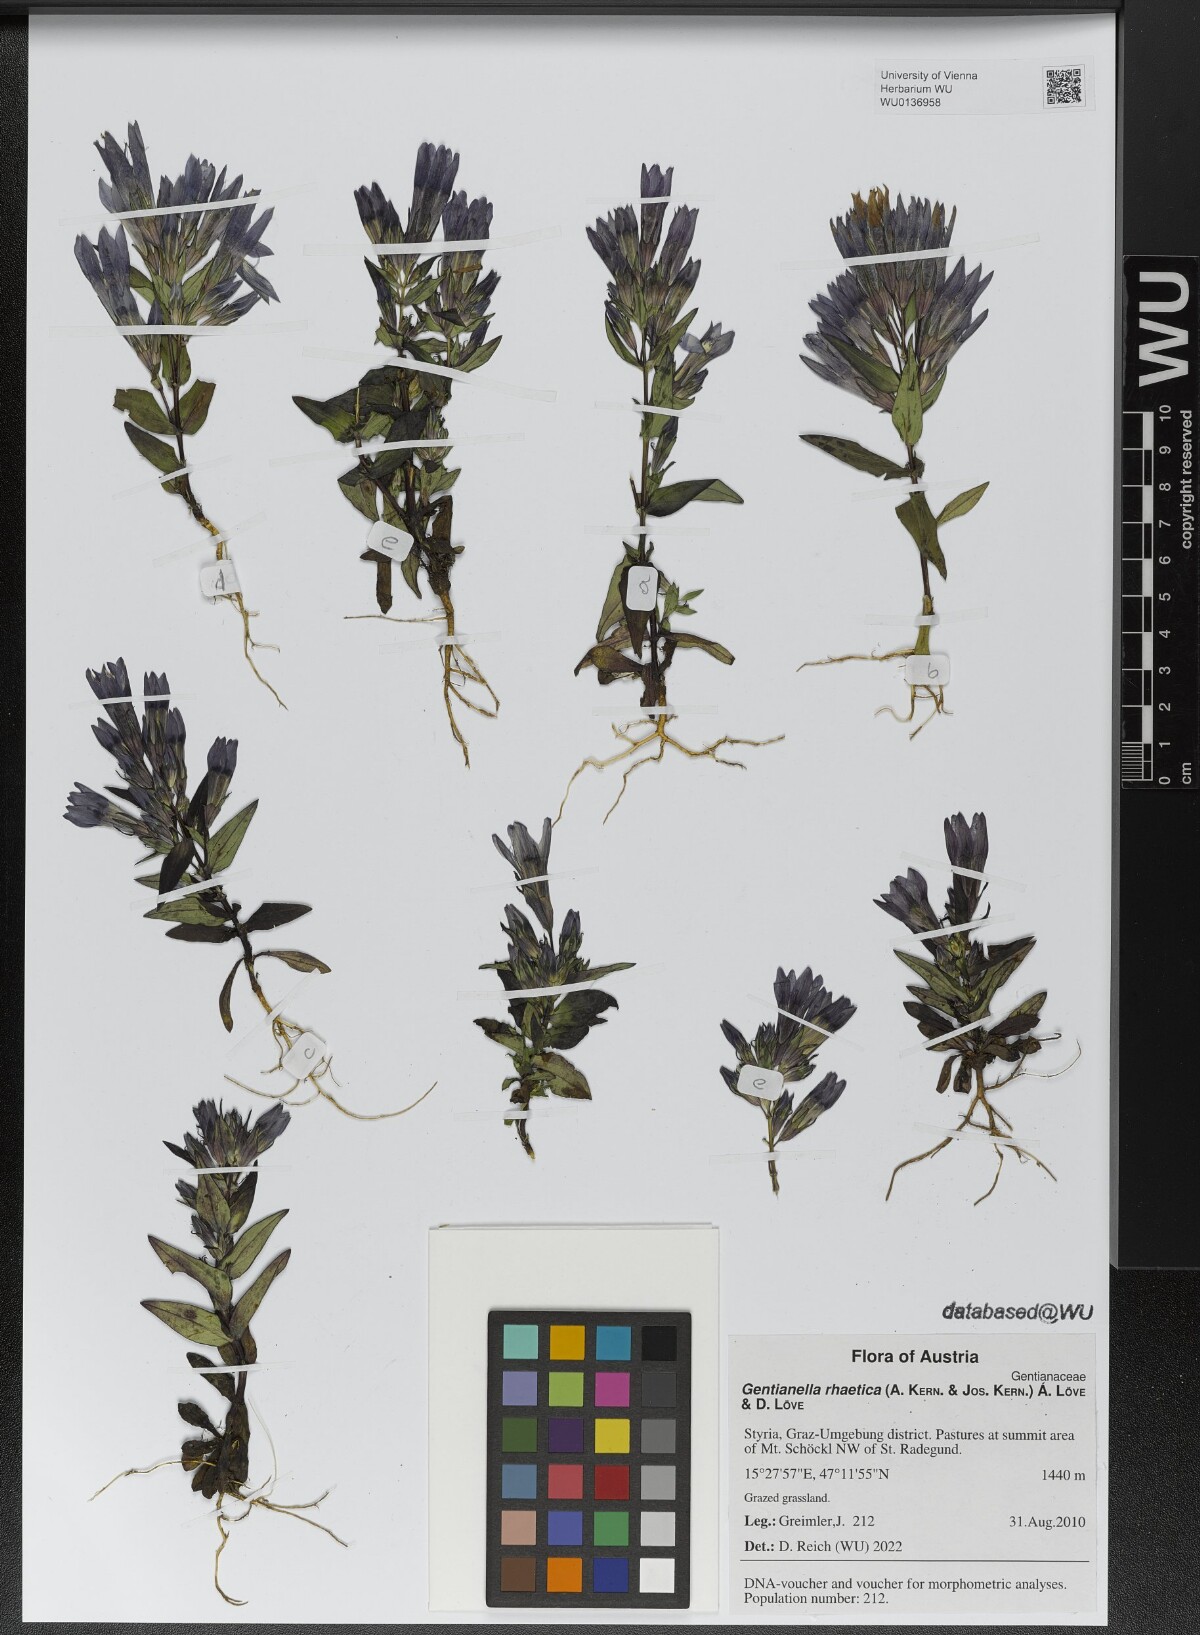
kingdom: Plantae
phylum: Tracheophyta
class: Magnoliopsida
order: Gentianales
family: Gentianaceae
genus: Gentianella
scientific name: Gentianella rhaetica
